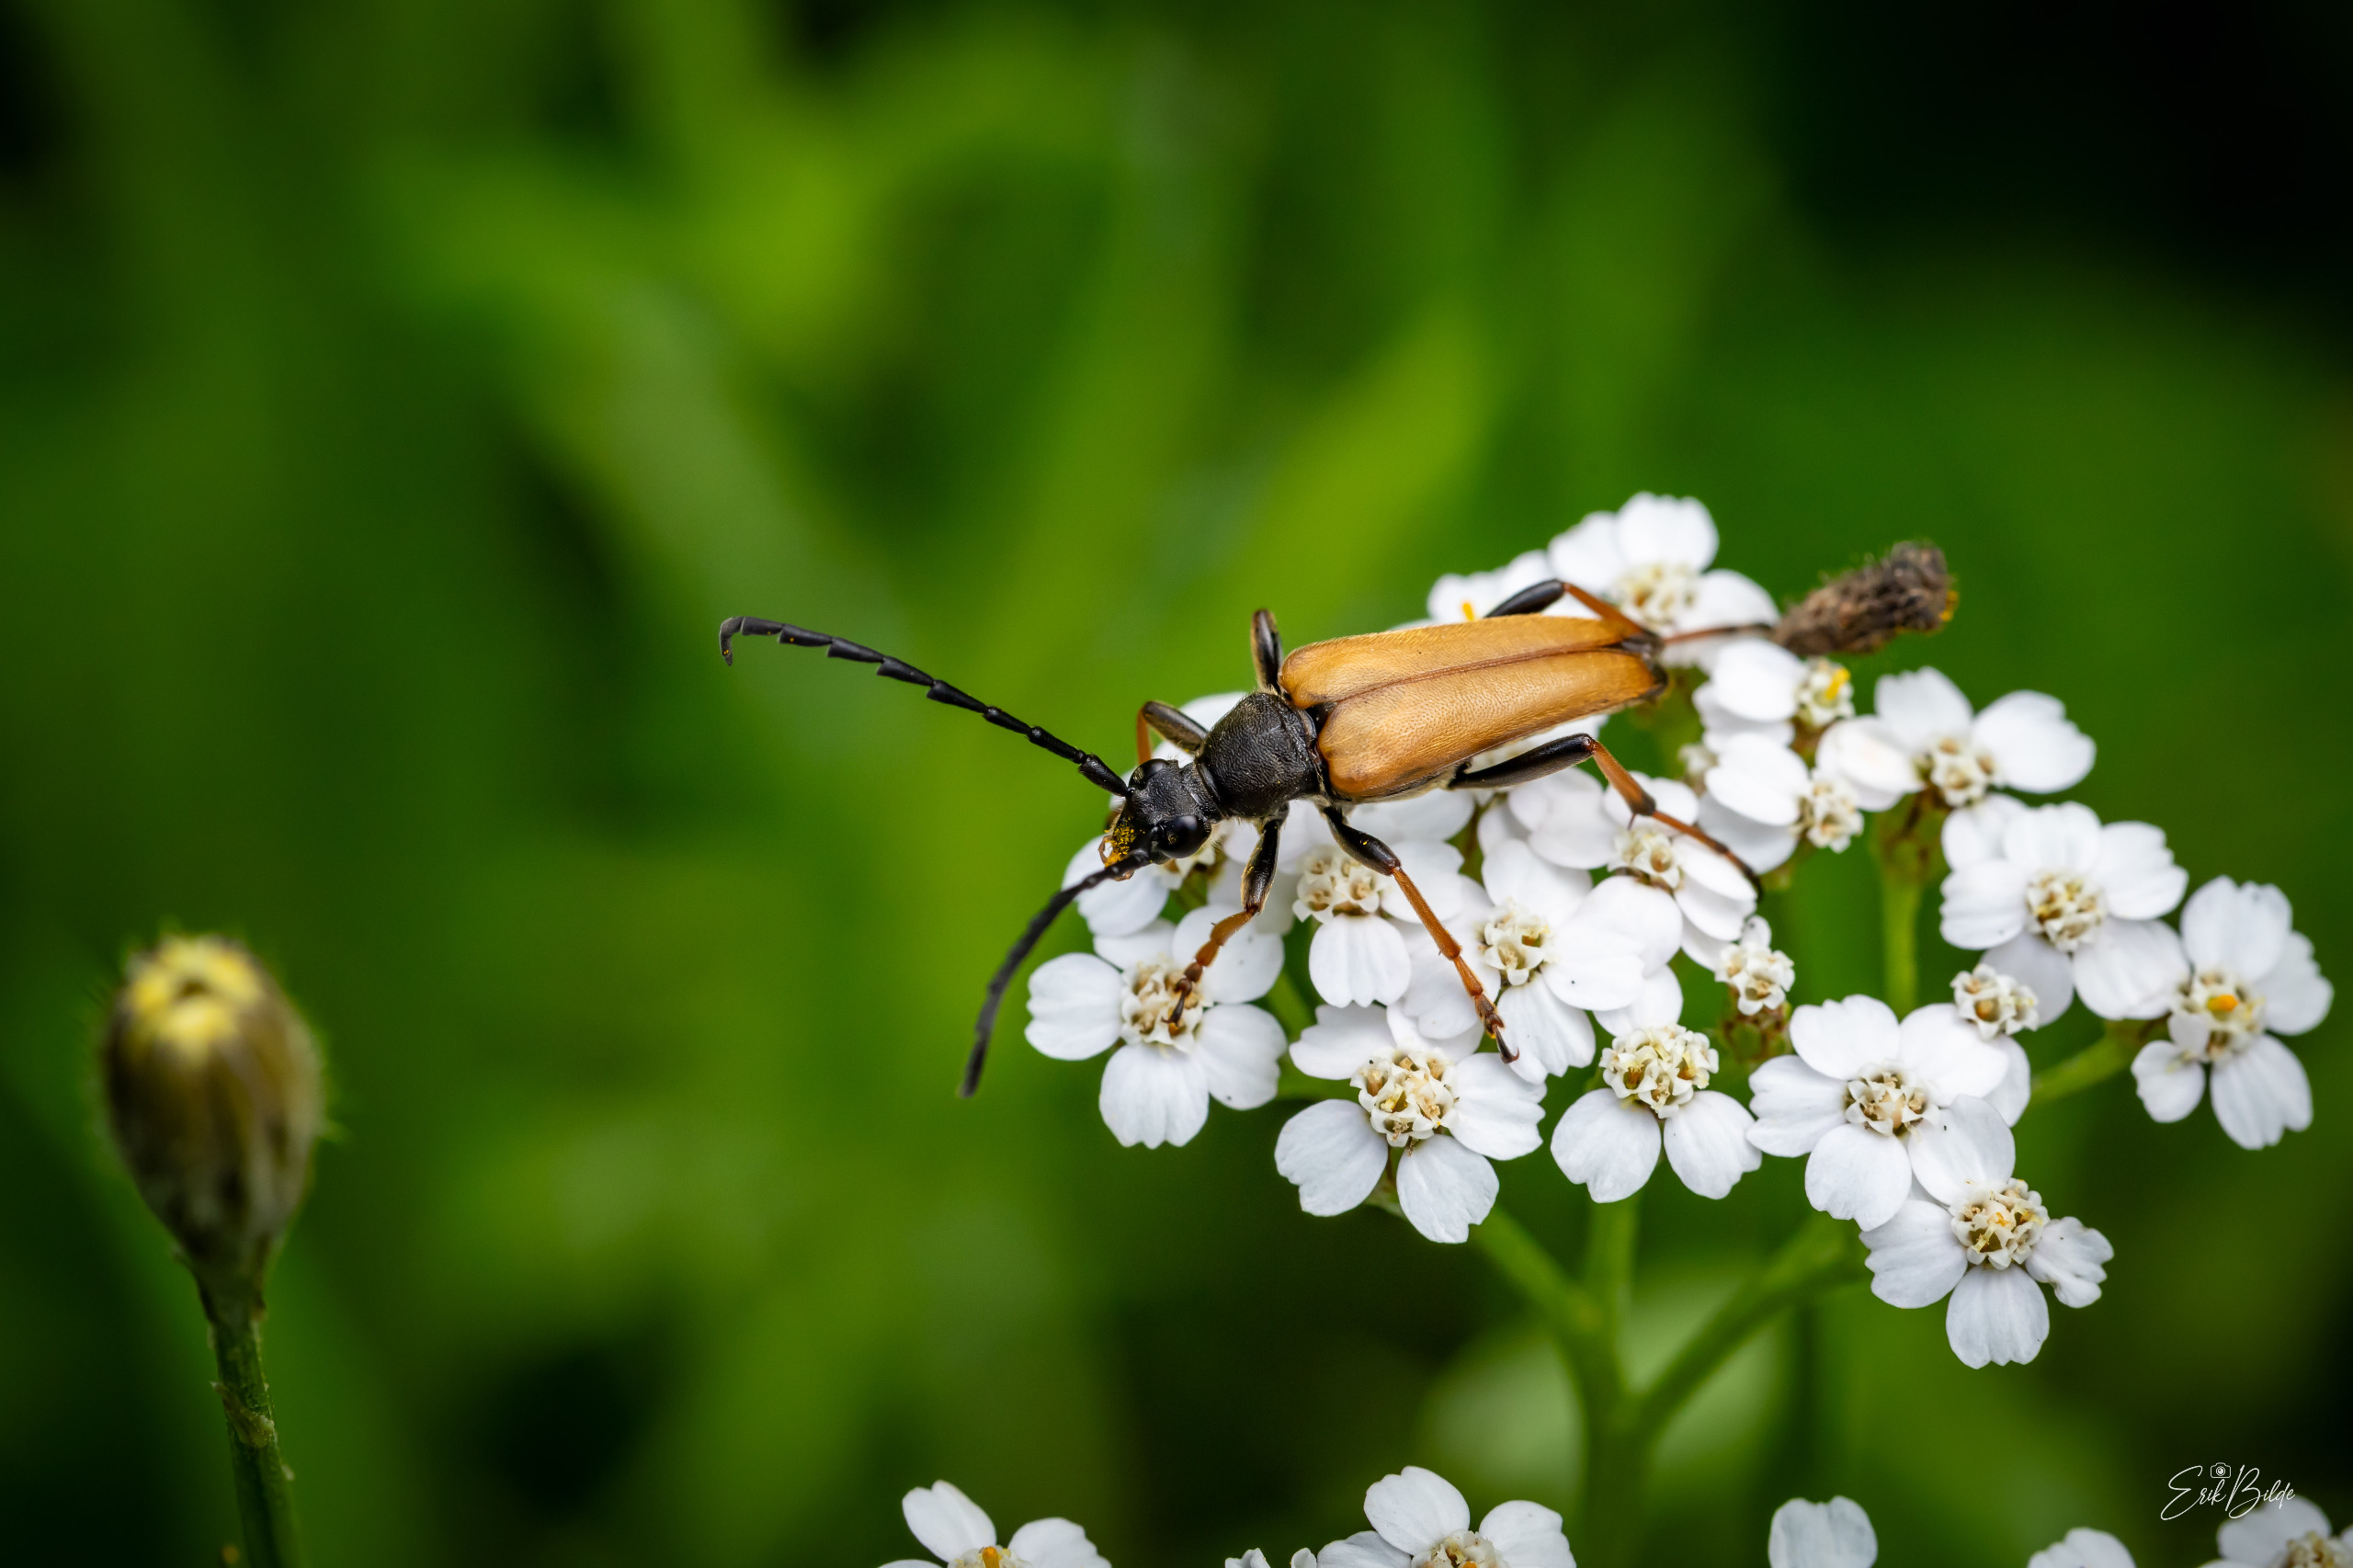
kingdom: Animalia
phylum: Arthropoda
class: Insecta
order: Coleoptera
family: Cerambycidae
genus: Stictoleptura
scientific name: Stictoleptura rubra
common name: Rød blomsterbuk
